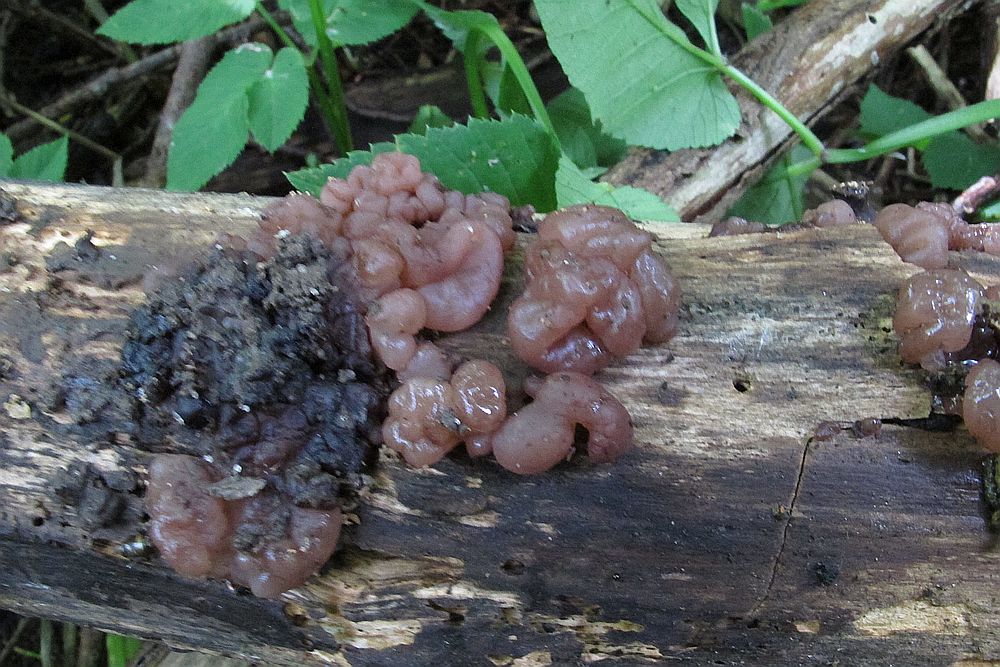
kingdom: Fungi
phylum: Ascomycota
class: Leotiomycetes
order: Helotiales
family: Gelatinodiscaceae
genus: Ascotremella
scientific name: Ascotremella faginea
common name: hjerne-bævreskive
